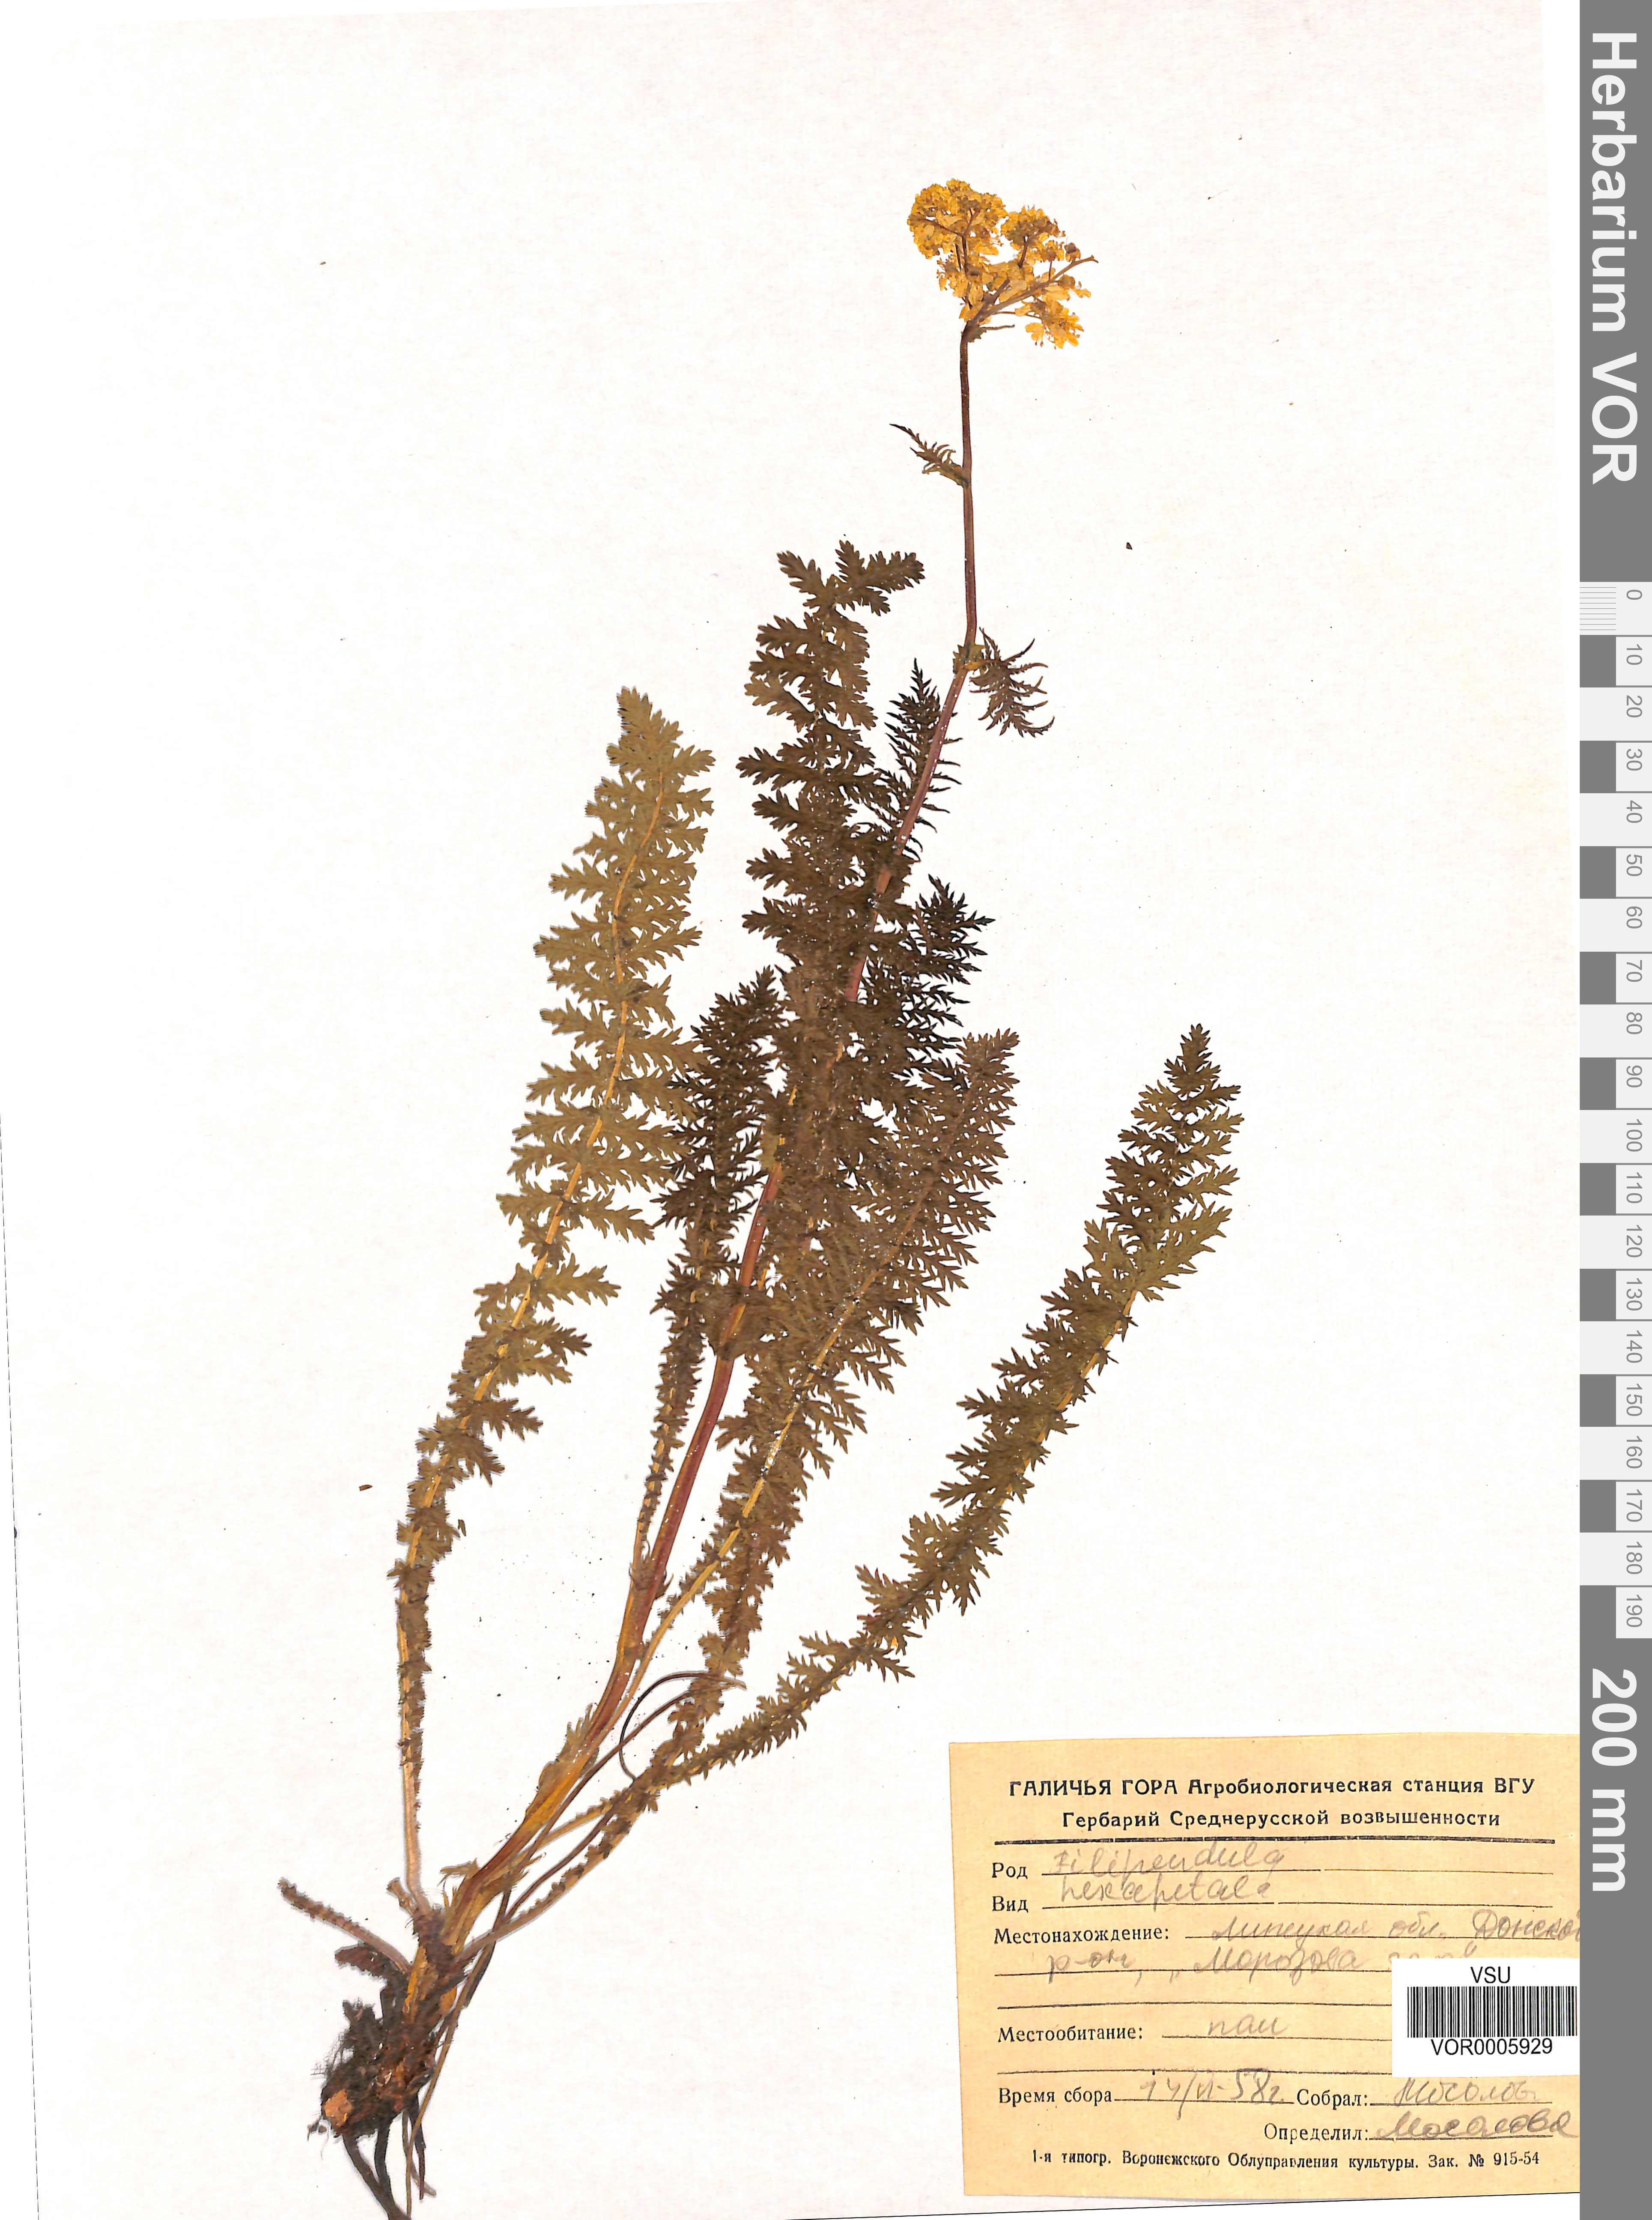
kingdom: Plantae
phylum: Tracheophyta
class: Magnoliopsida
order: Rosales
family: Rosaceae
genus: Filipendula
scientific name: Filipendula vulgaris
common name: Dropwort
